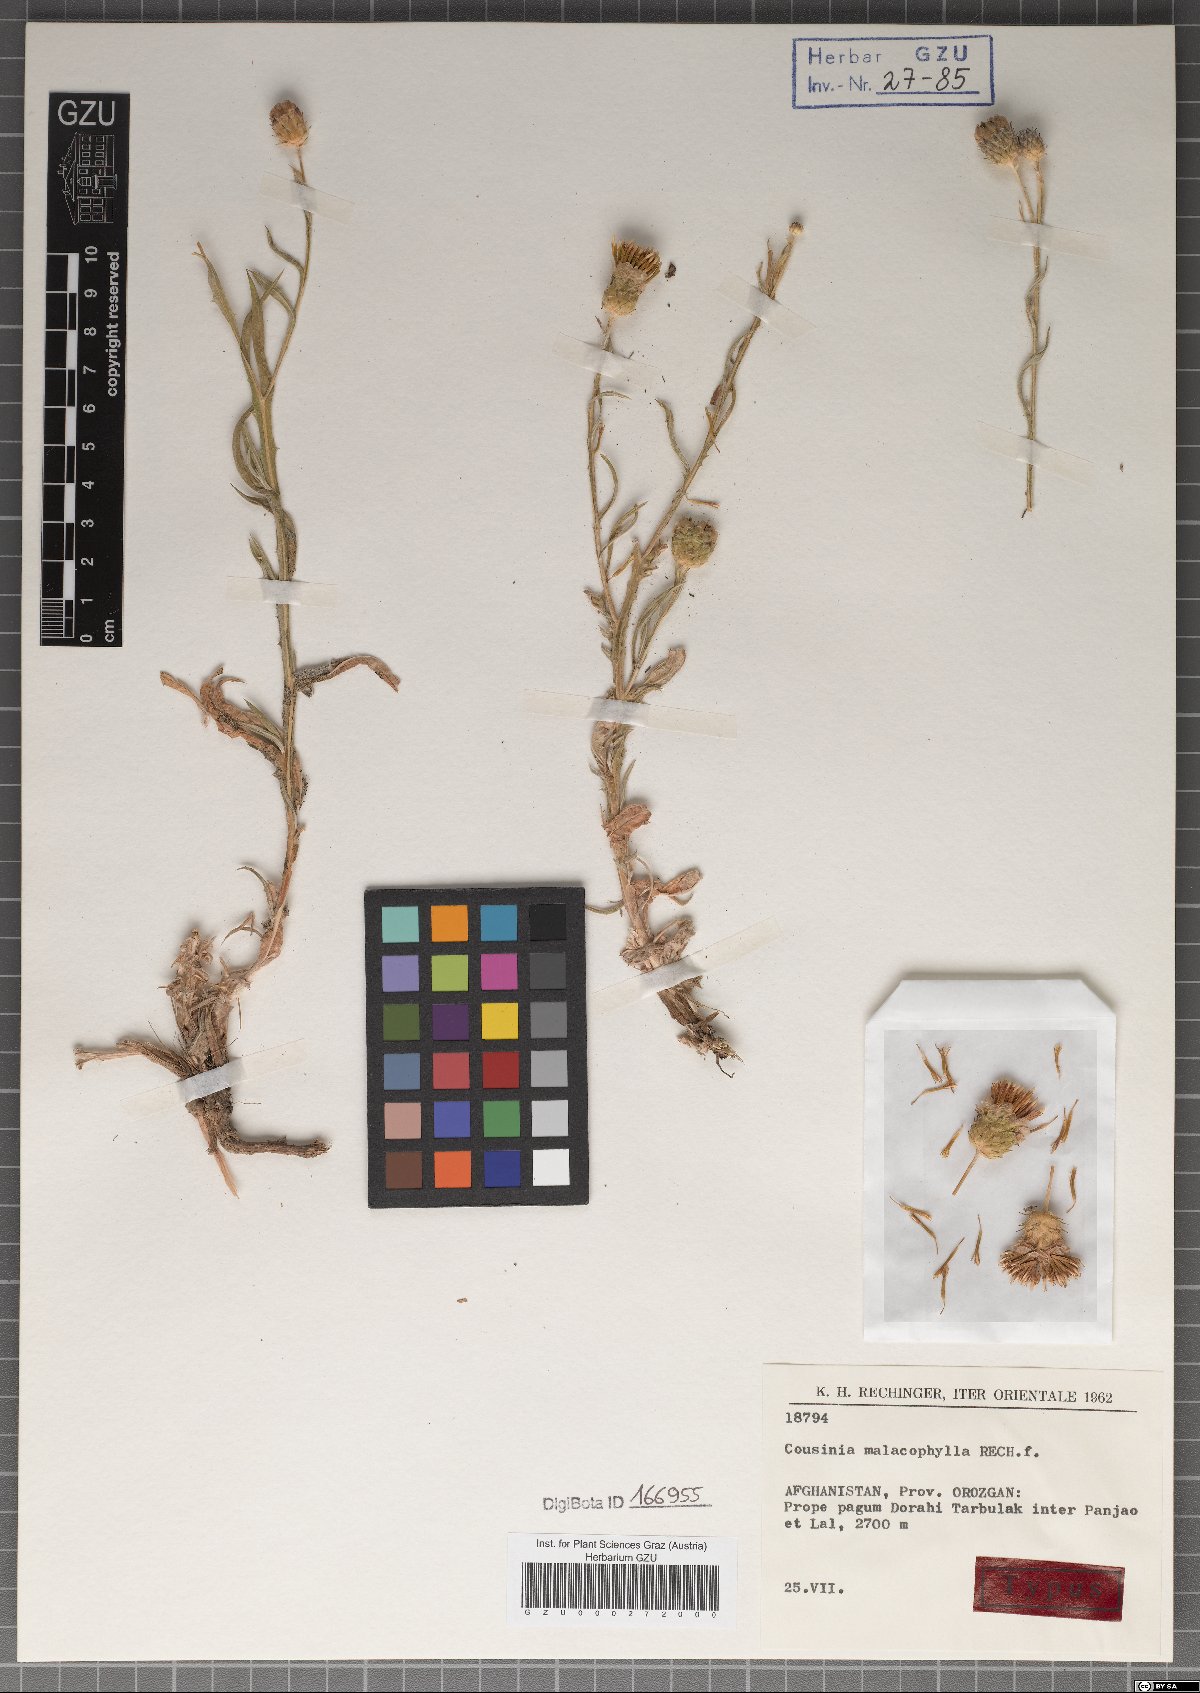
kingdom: Plantae
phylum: Tracheophyta
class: Magnoliopsida
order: Asterales
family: Asteraceae
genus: Cousinia
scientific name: Cousinia malacophylla
